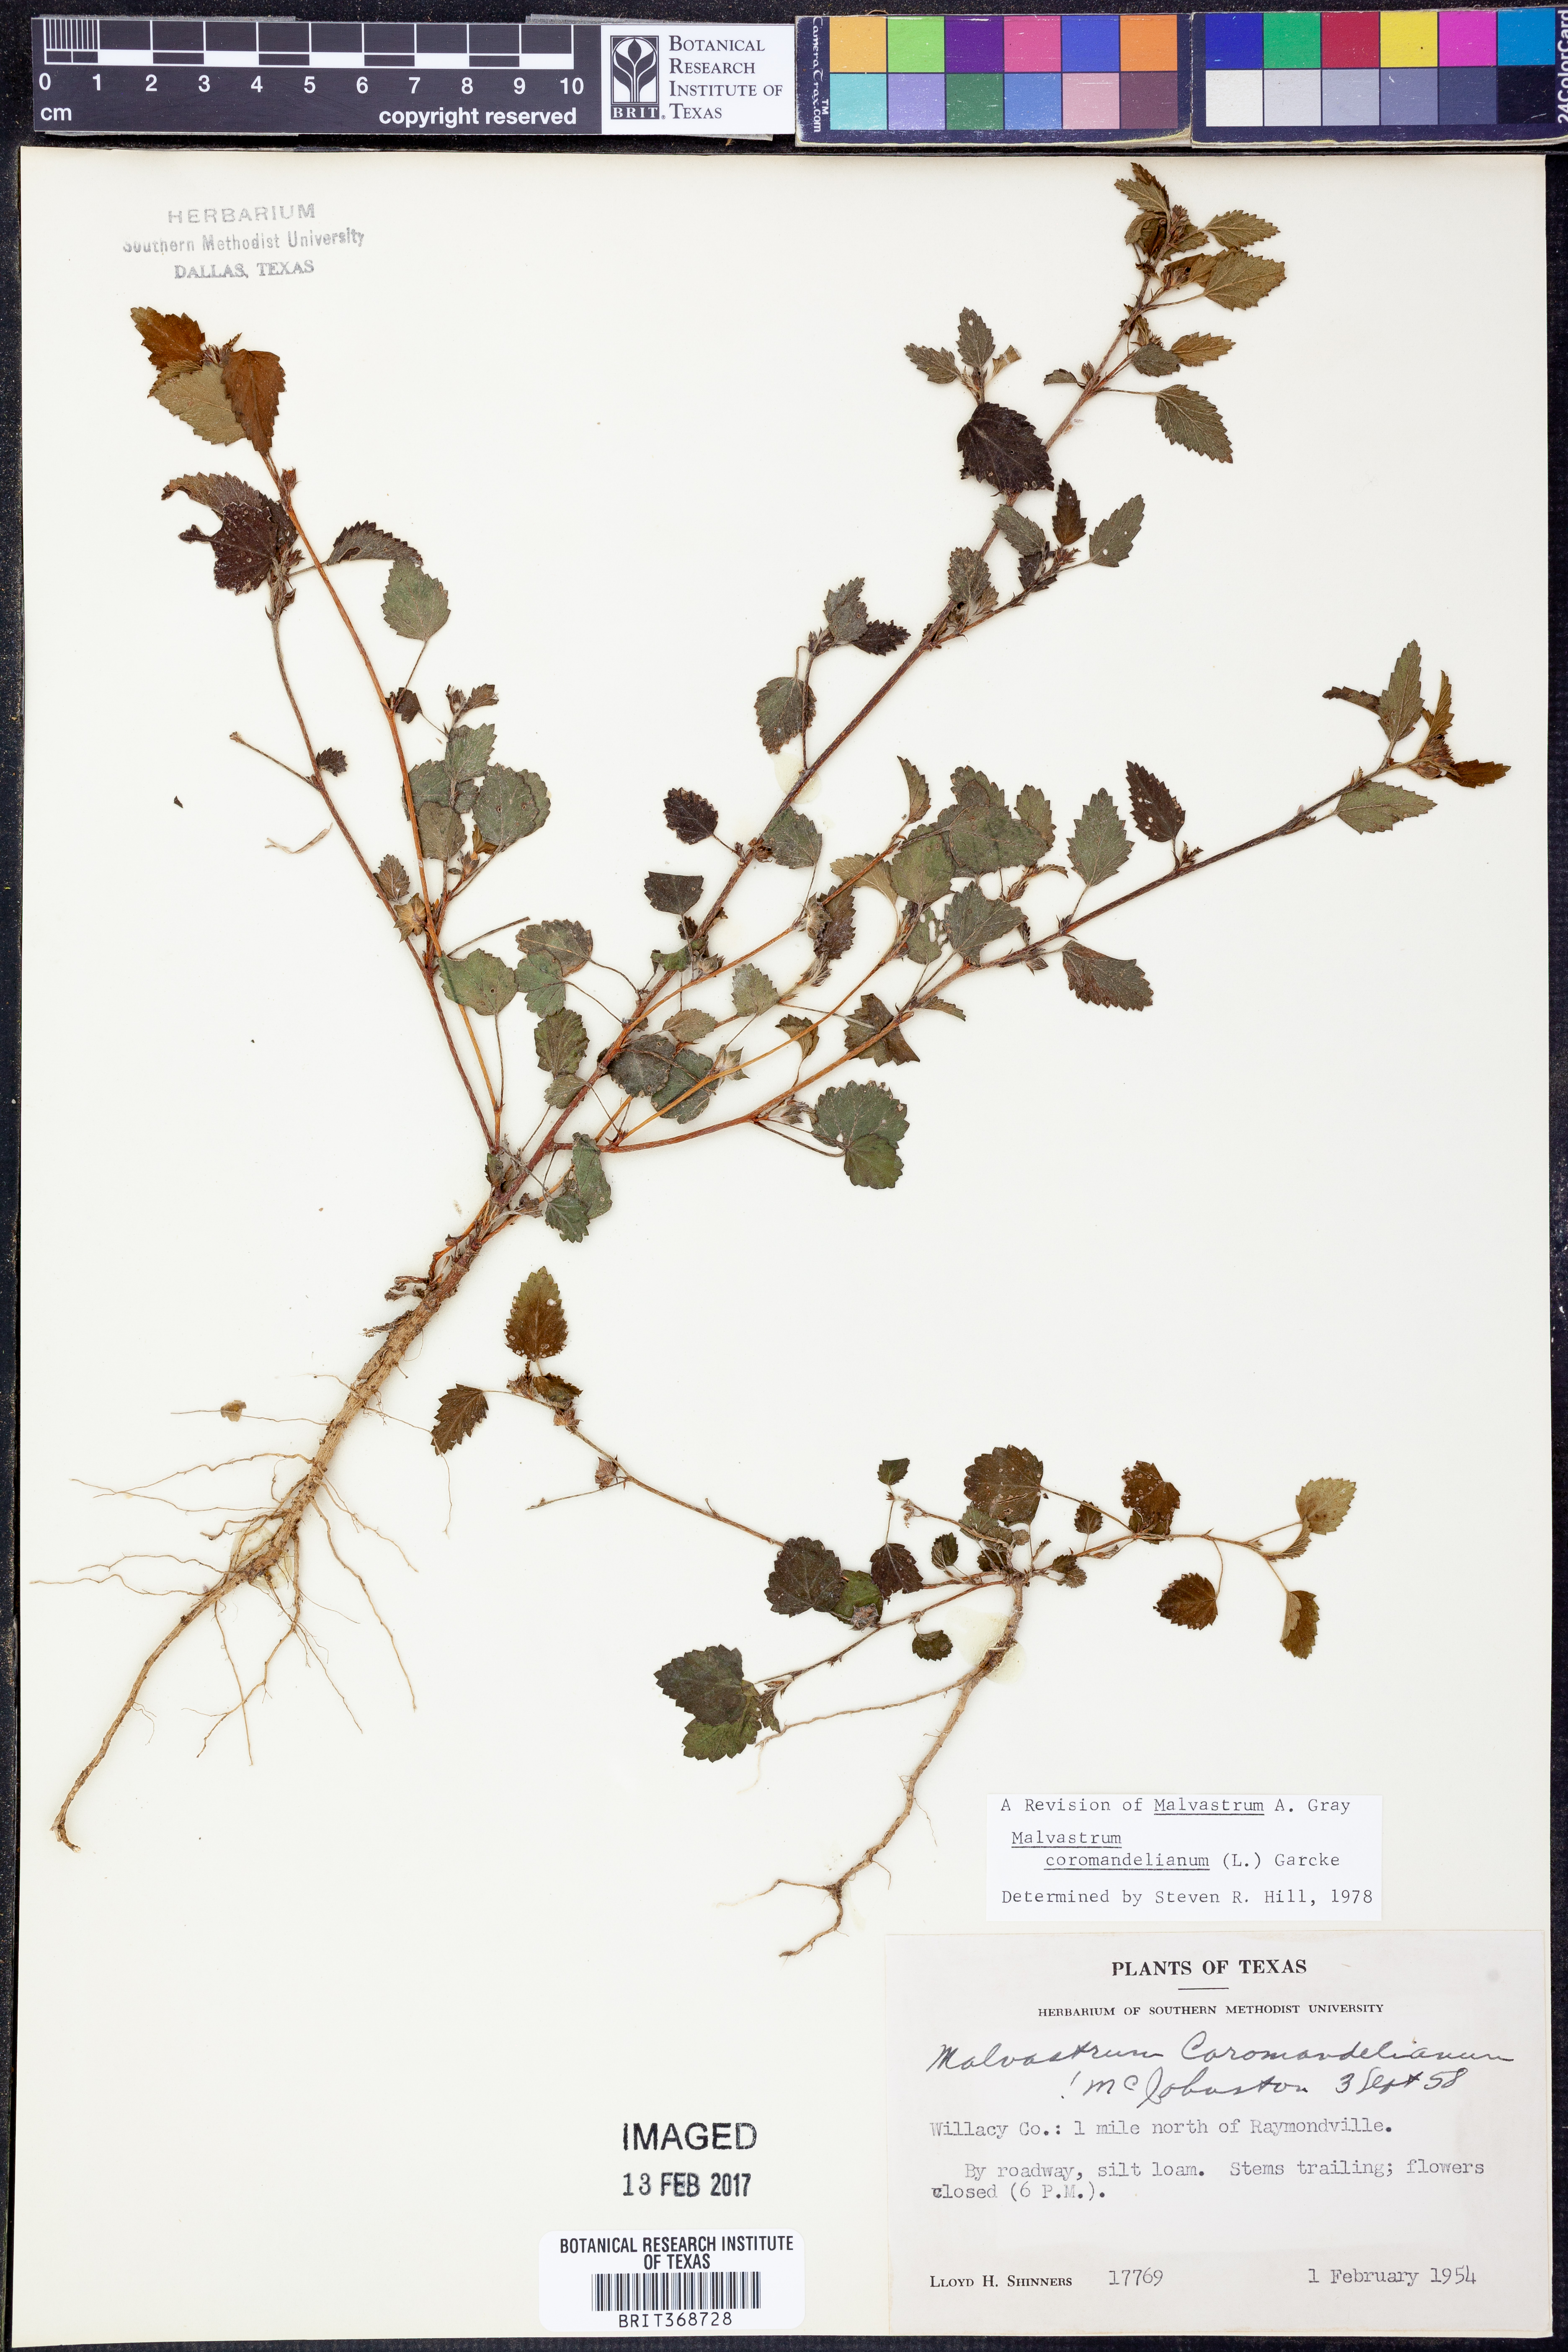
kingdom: Plantae
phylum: Tracheophyta
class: Magnoliopsida
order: Malvales
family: Malvaceae
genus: Malvastrum
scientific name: Malvastrum coromandelianum
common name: Threelobe false mallow
